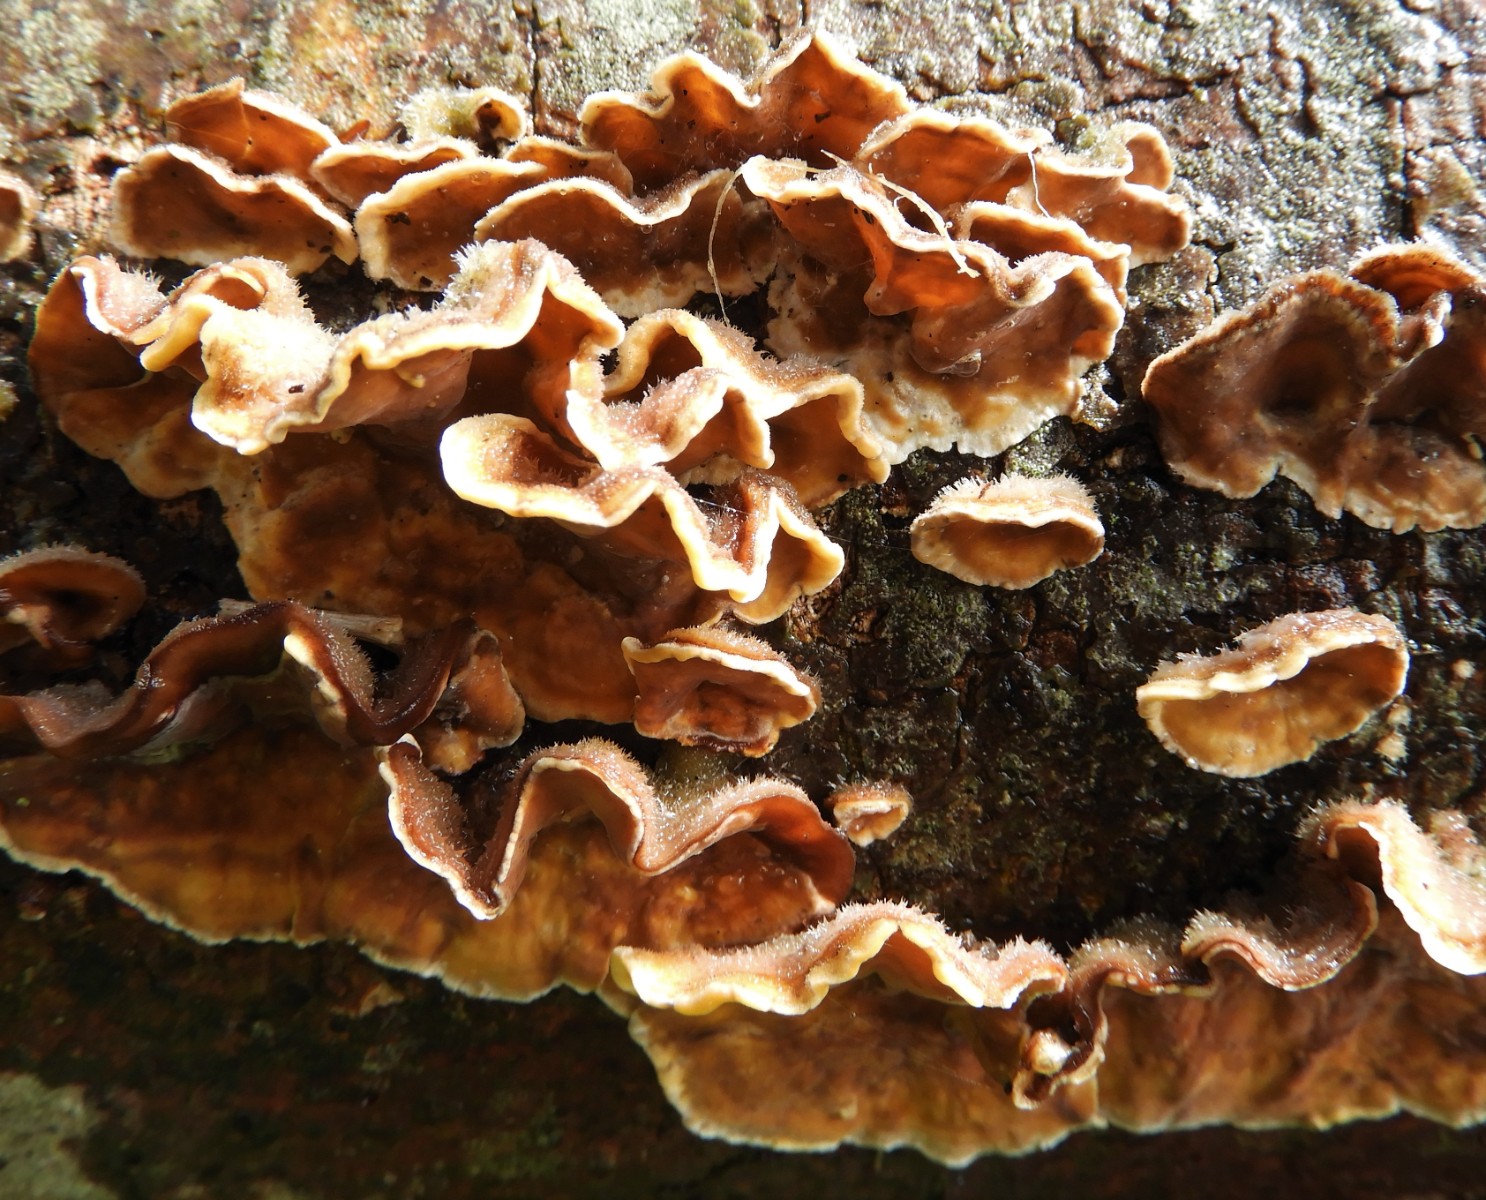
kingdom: Fungi
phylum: Basidiomycota
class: Agaricomycetes
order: Russulales
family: Stereaceae
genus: Stereum
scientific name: Stereum hirsutum
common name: håret lædersvamp
